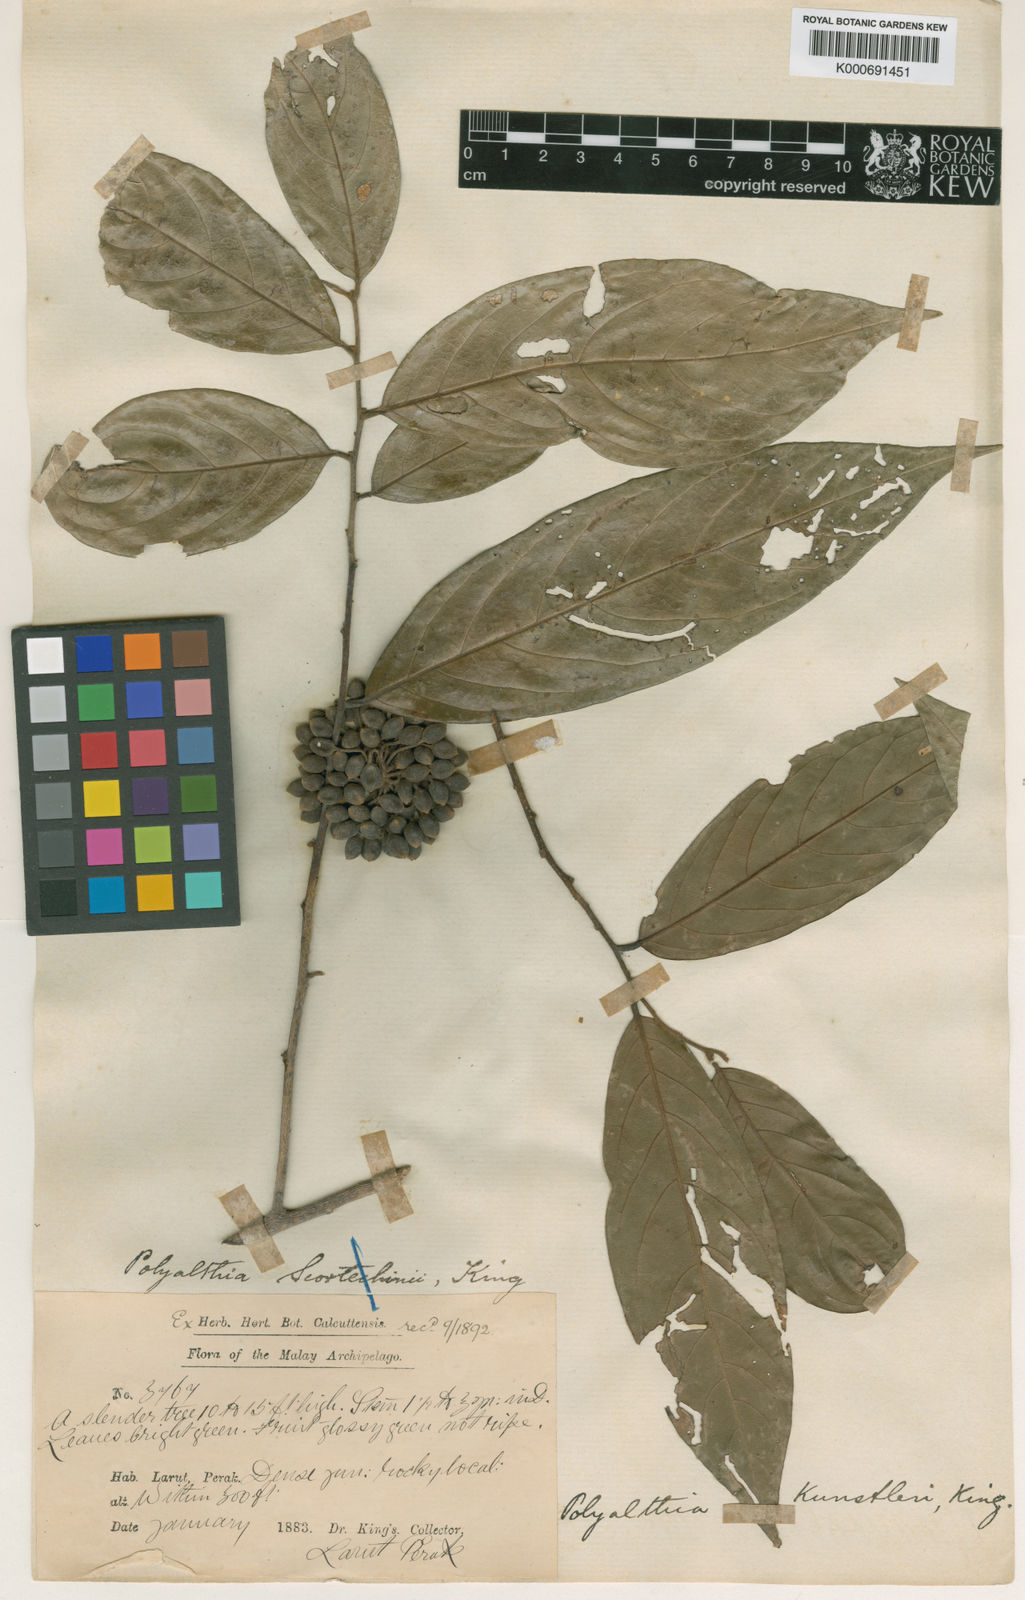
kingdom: Plantae
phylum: Tracheophyta
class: Magnoliopsida
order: Magnoliales
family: Annonaceae
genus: Hubera
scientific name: Hubera rumphii
